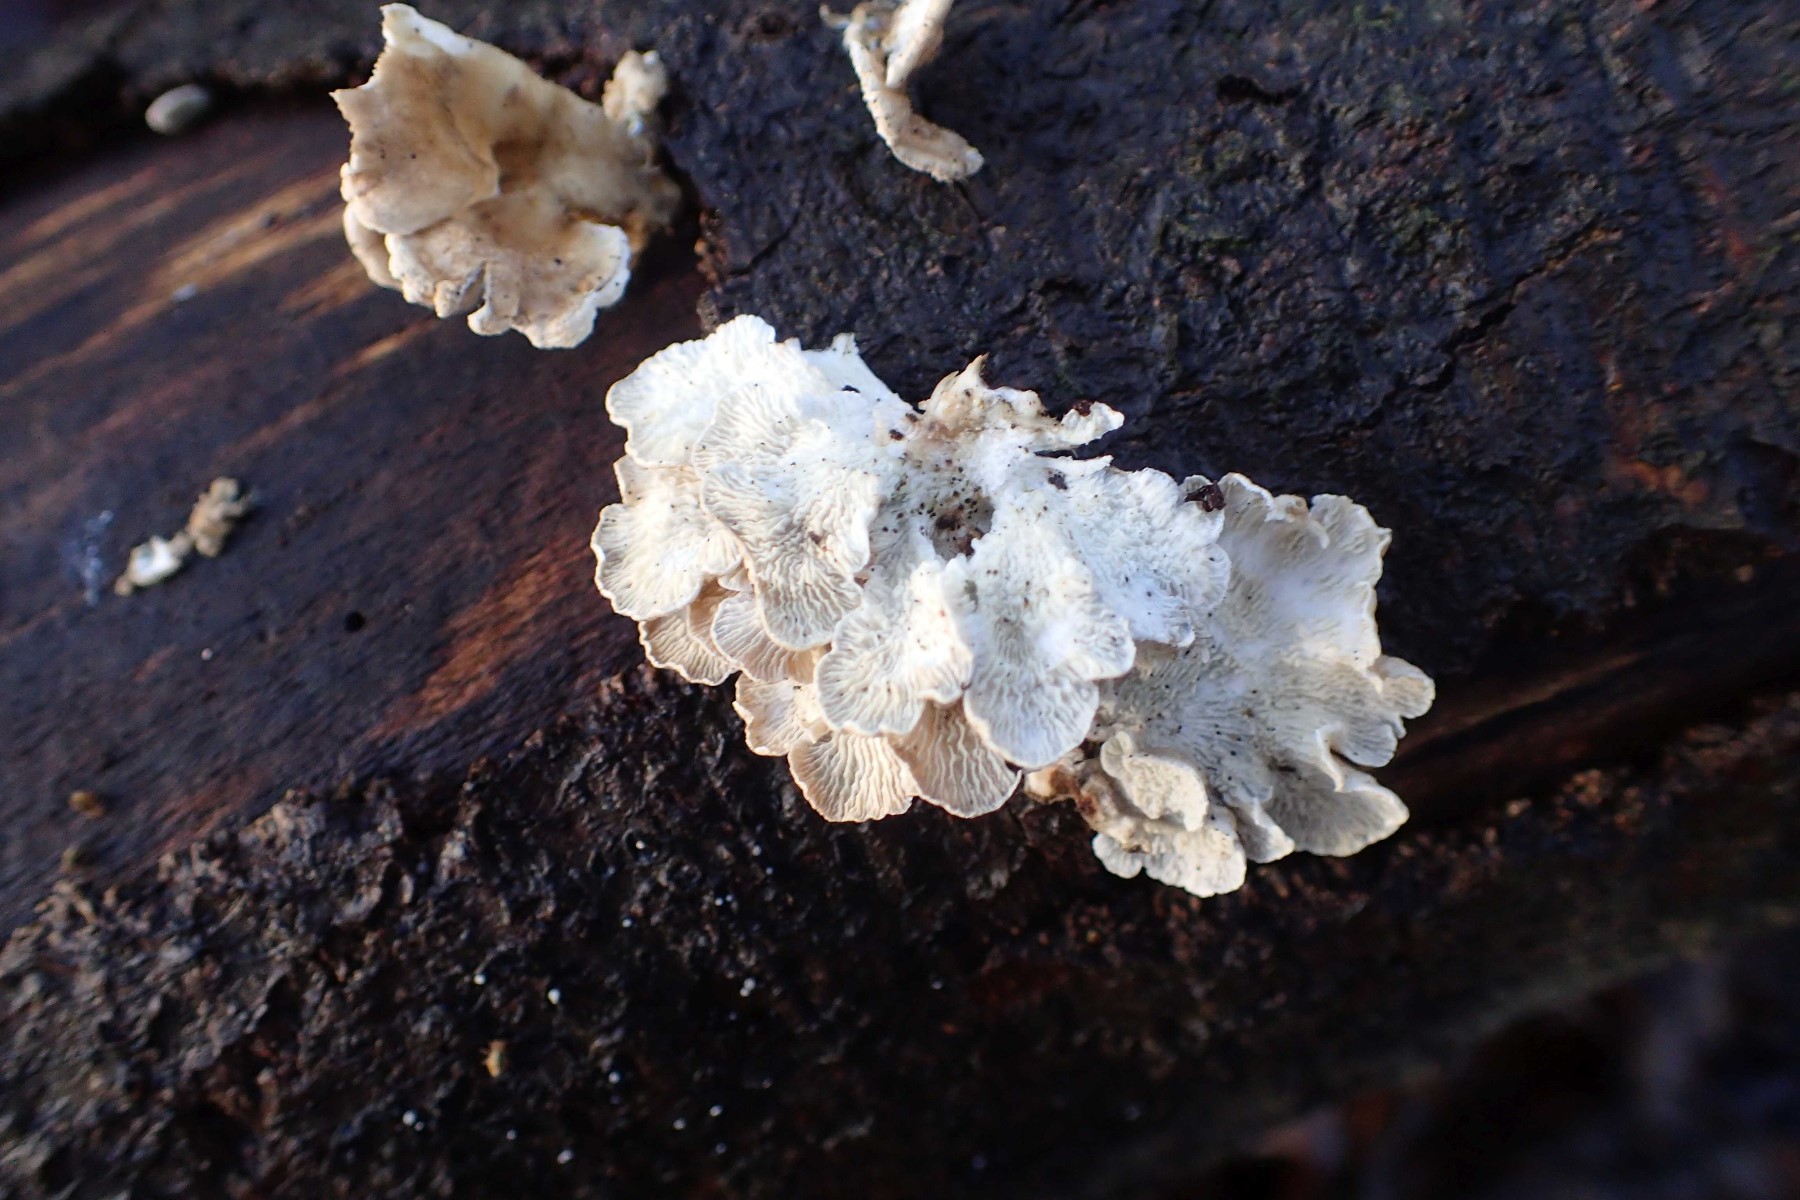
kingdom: Fungi
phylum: Basidiomycota
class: Agaricomycetes
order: Amylocorticiales
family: Amylocorticiaceae
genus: Plicaturopsis
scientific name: Plicaturopsis crispa
